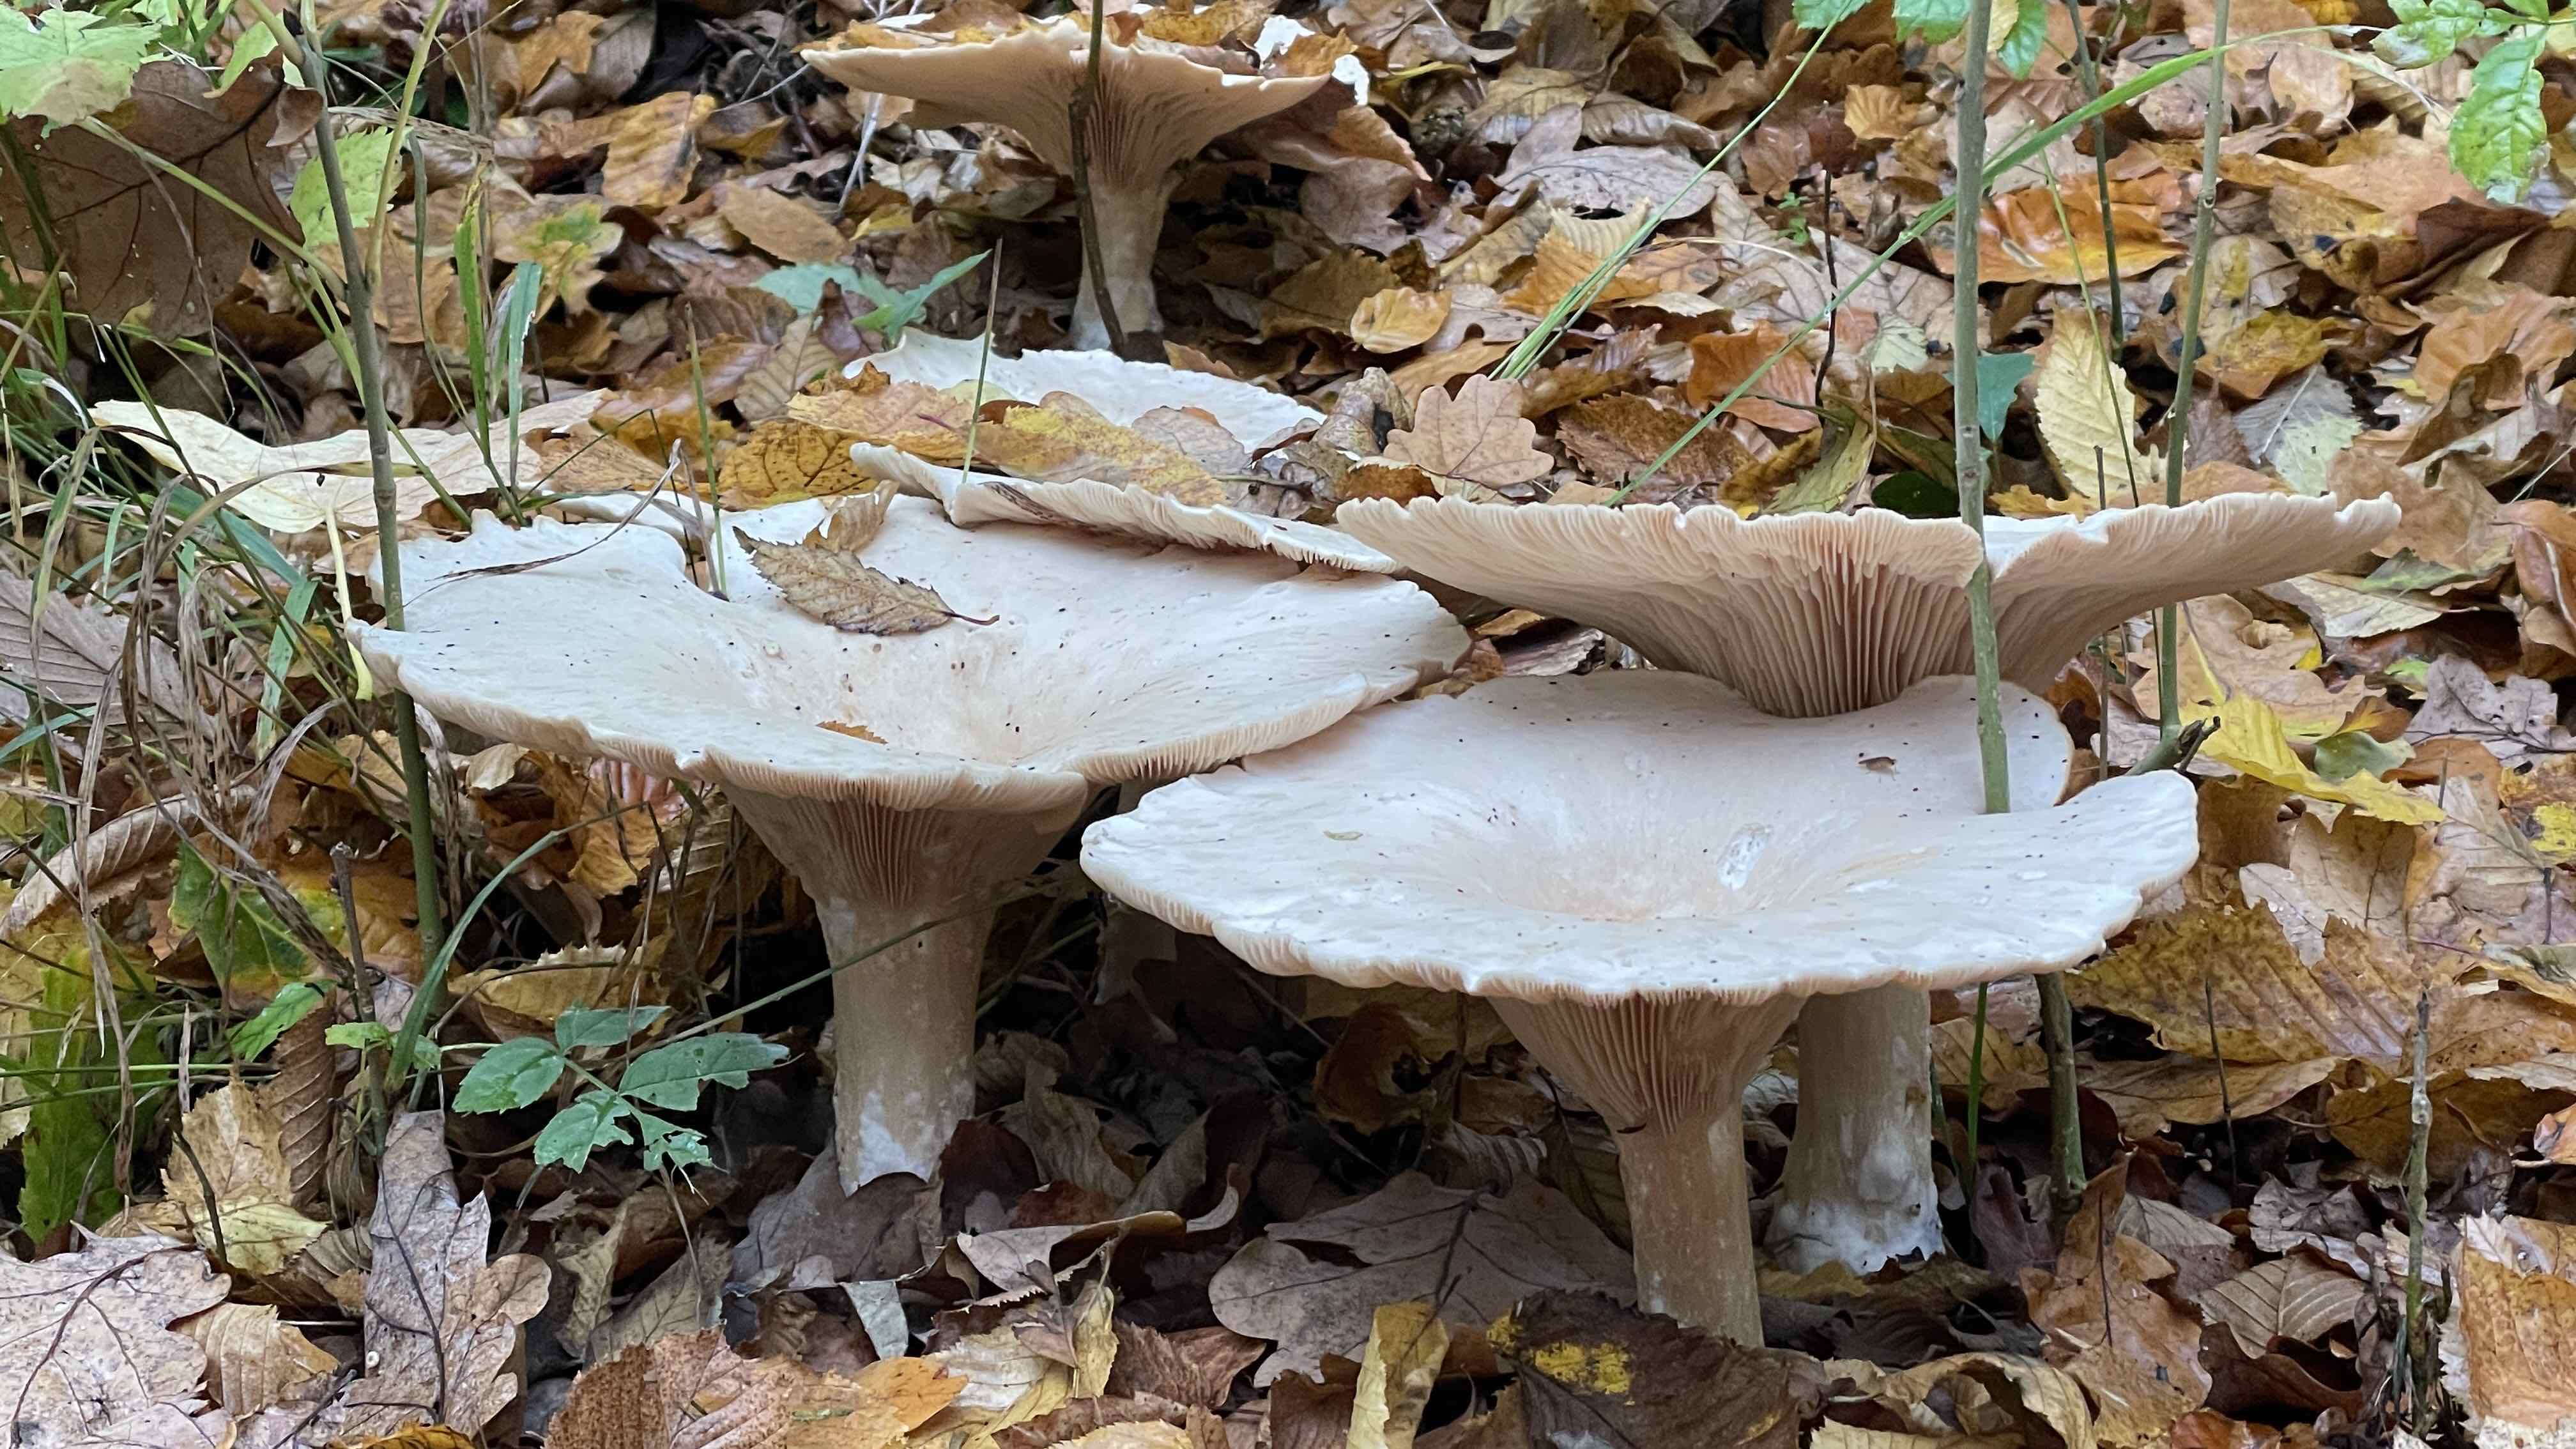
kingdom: Fungi
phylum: Basidiomycota
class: Agaricomycetes
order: Agaricales
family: Tricholomataceae
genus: Infundibulicybe
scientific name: Infundibulicybe geotropa
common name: stor tragthat
